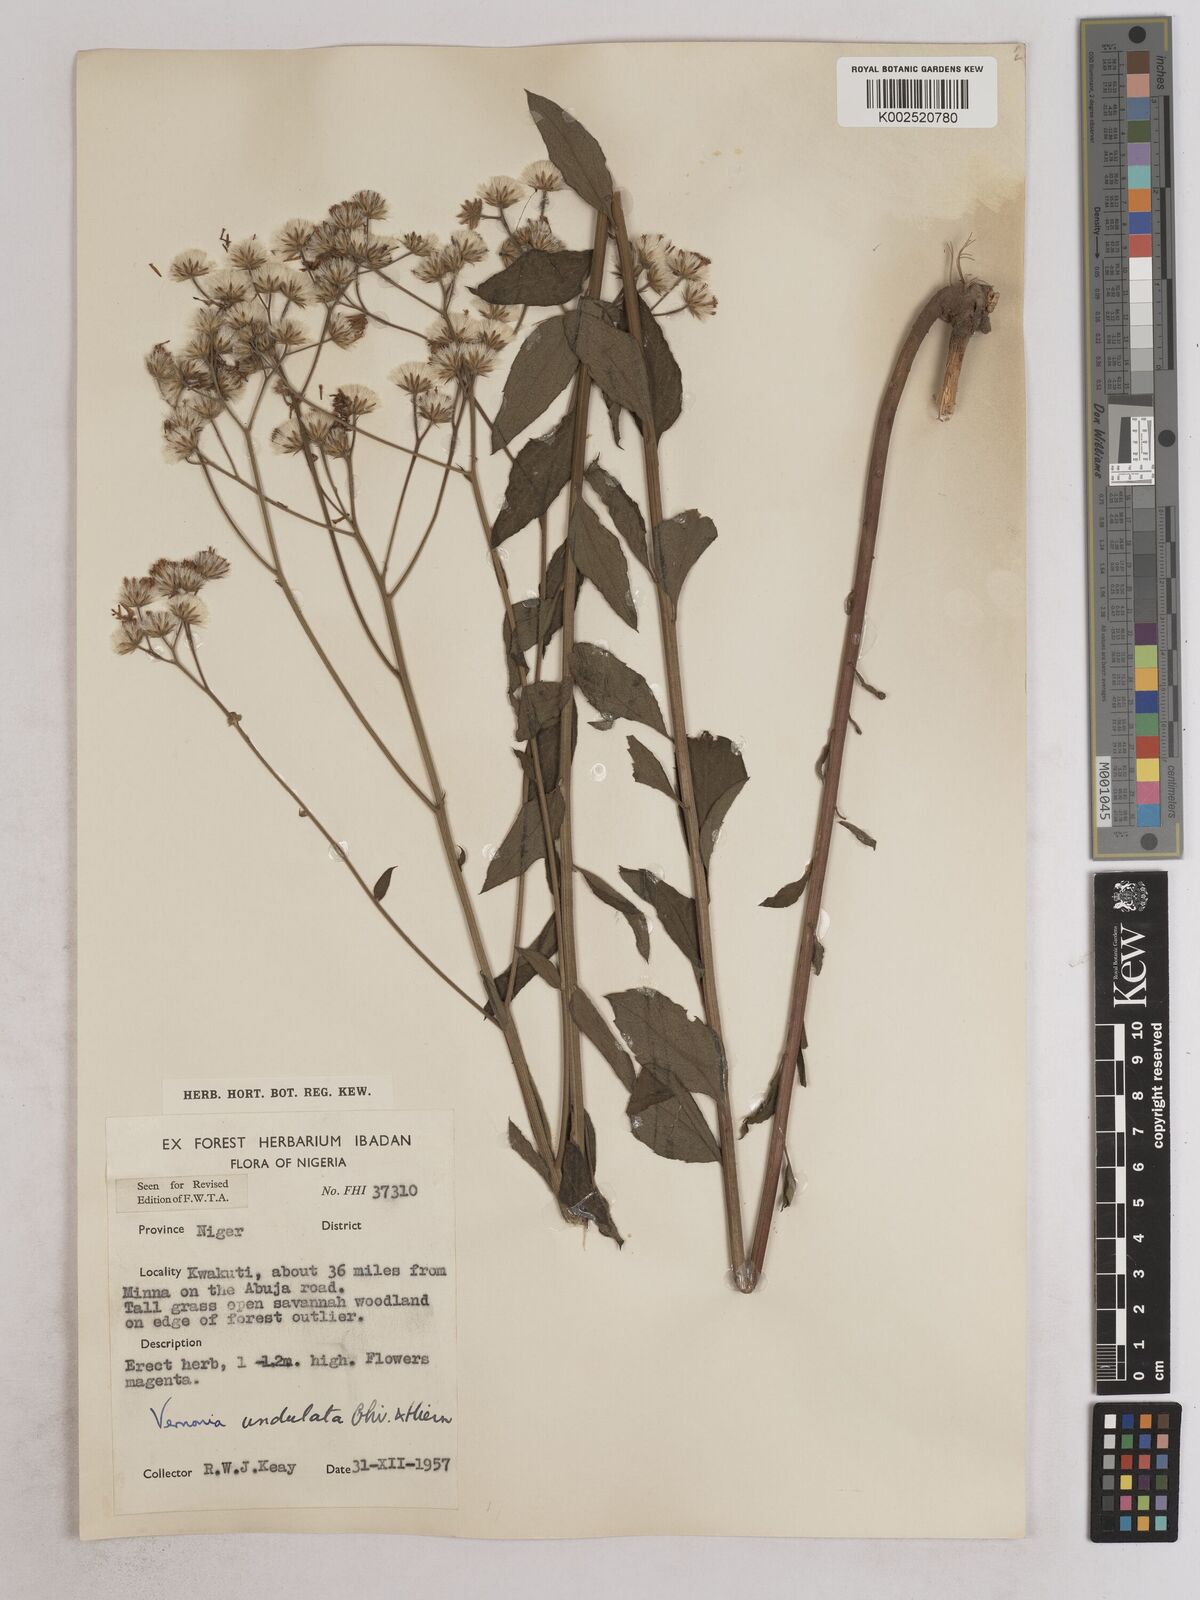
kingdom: Plantae
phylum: Tracheophyta
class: Magnoliopsida
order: Asterales
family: Asteraceae
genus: Vernonia
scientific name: Vernonia golungensis
